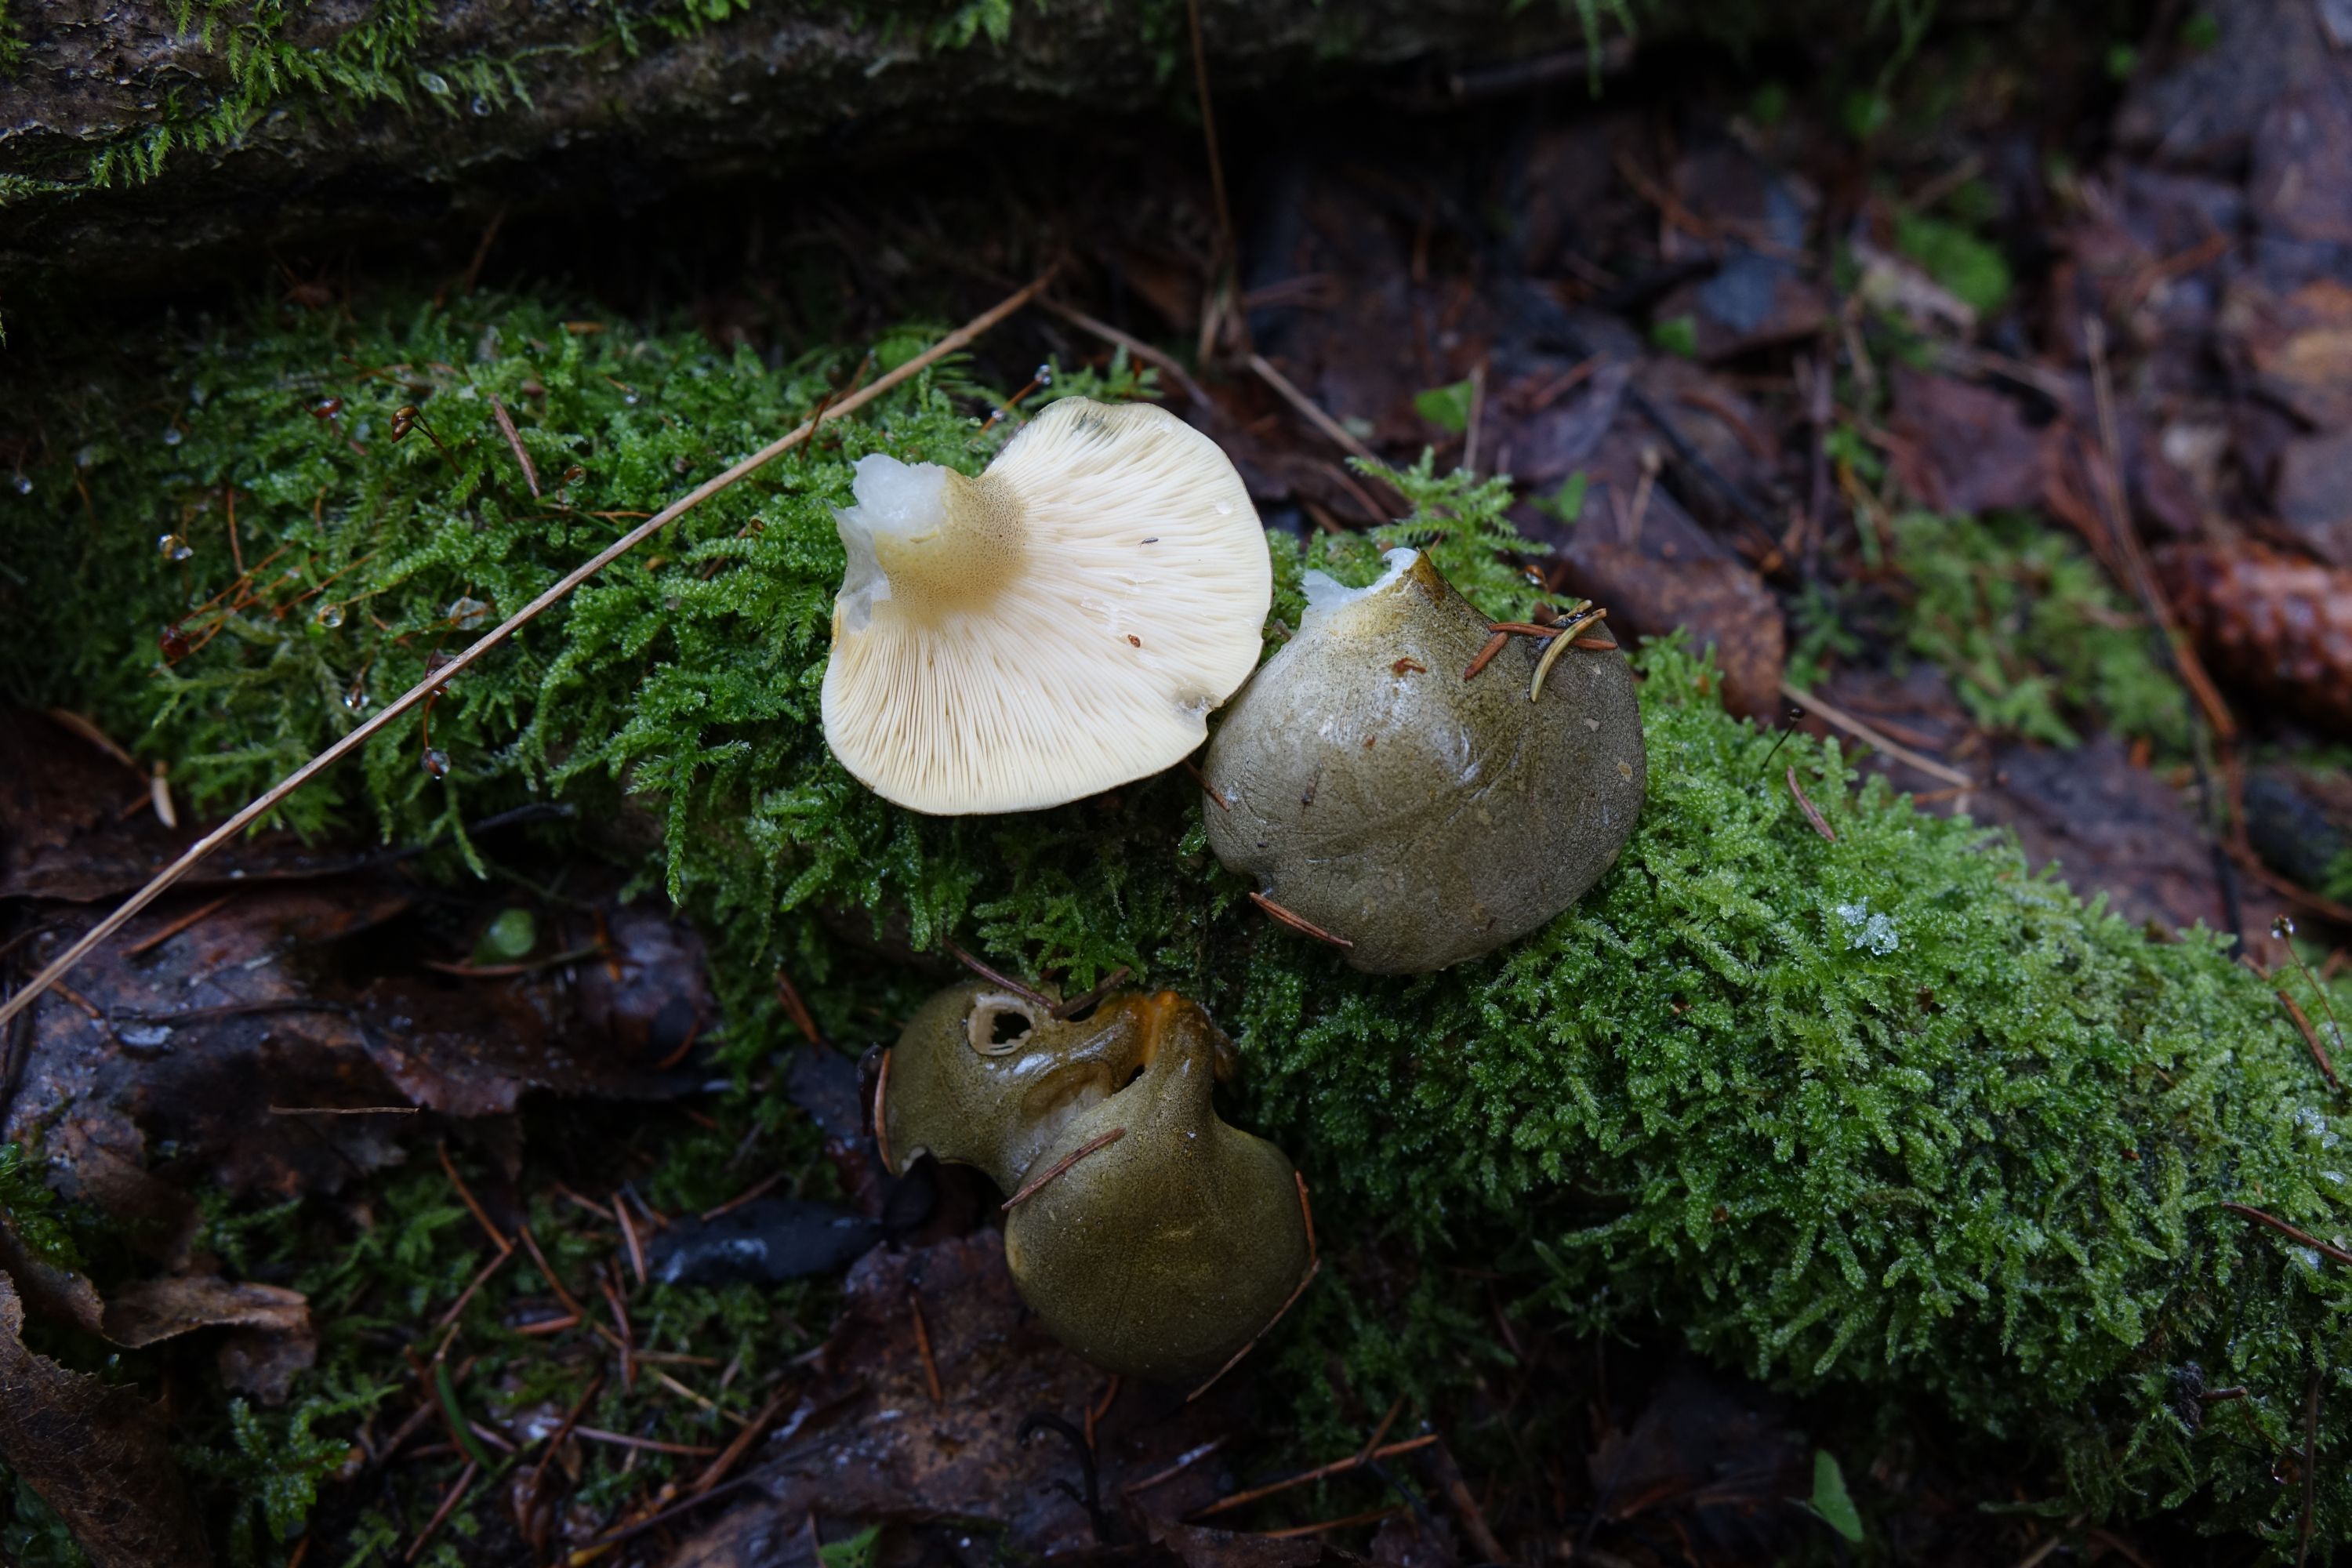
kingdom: Fungi
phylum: Basidiomycota
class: Agaricomycetes
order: Agaricales
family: Sarcomyxaceae
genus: Sarcomyxa
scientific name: Sarcomyxa serotina
